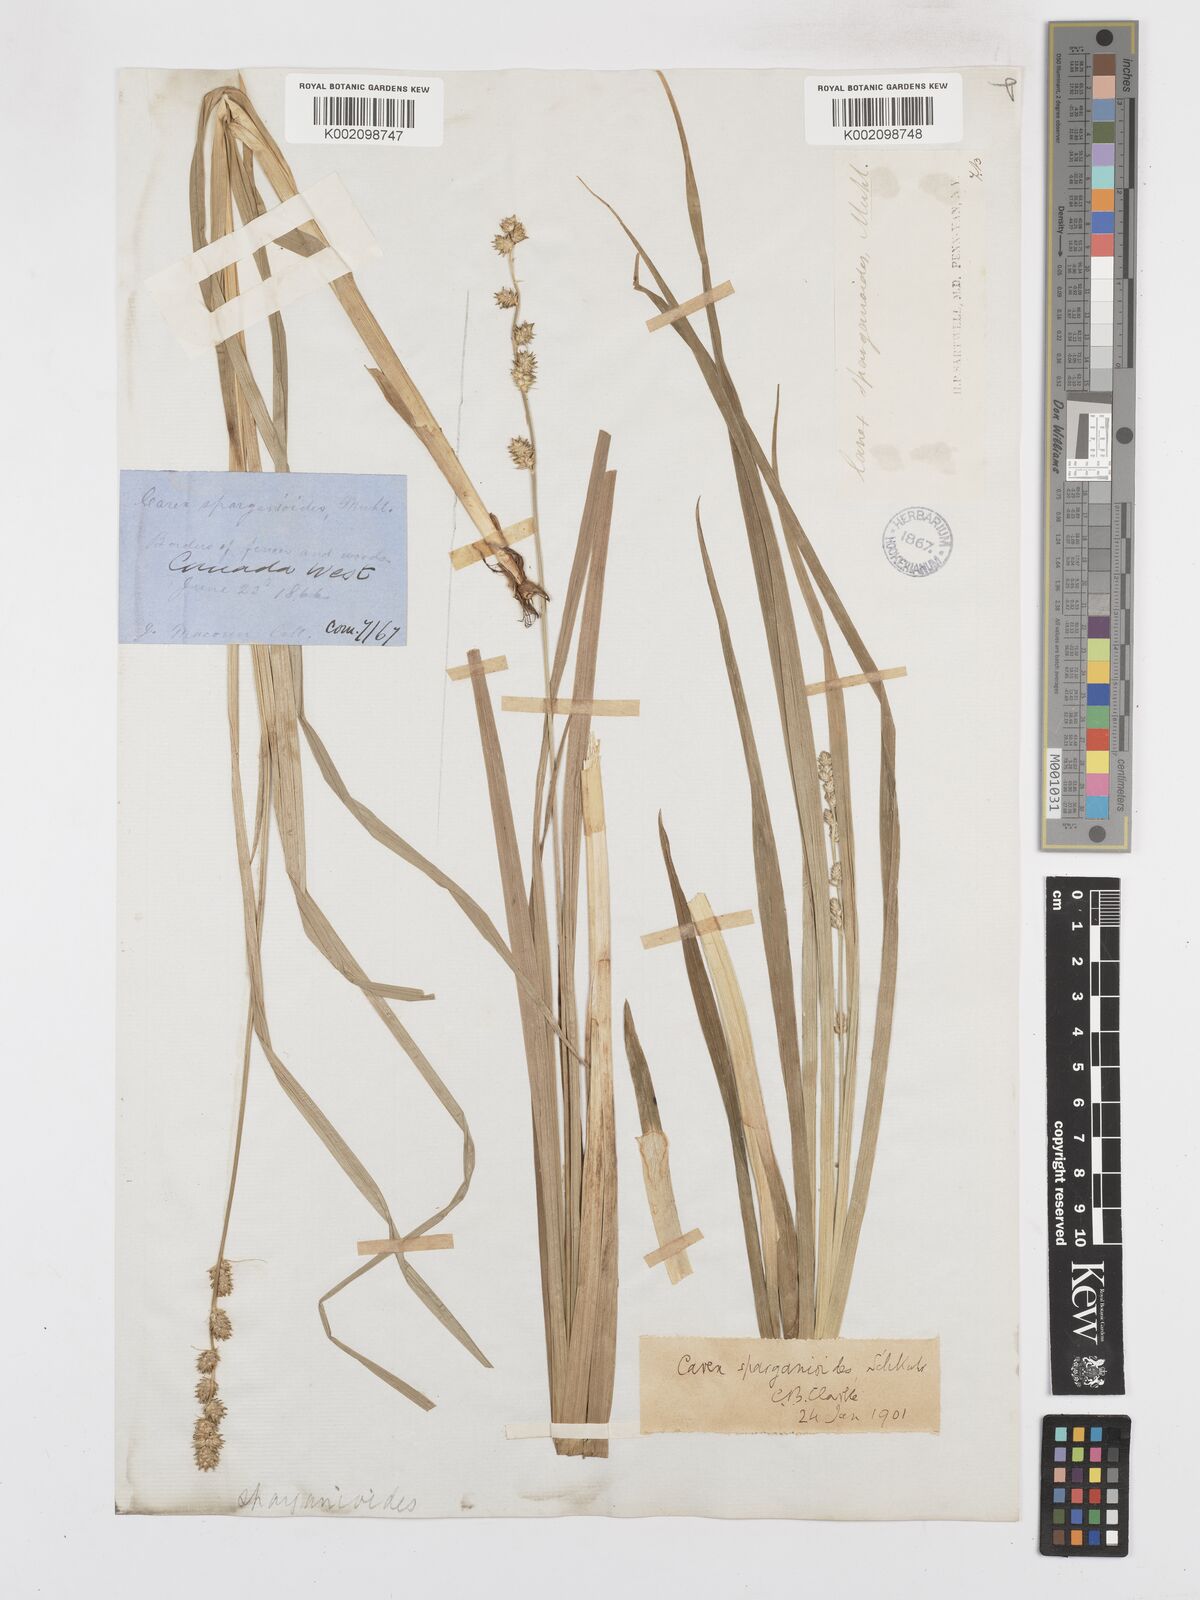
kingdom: Plantae
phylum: Tracheophyta
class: Liliopsida
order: Poales
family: Cyperaceae
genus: Carex
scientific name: Carex sparganioides
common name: Burreed sedge
